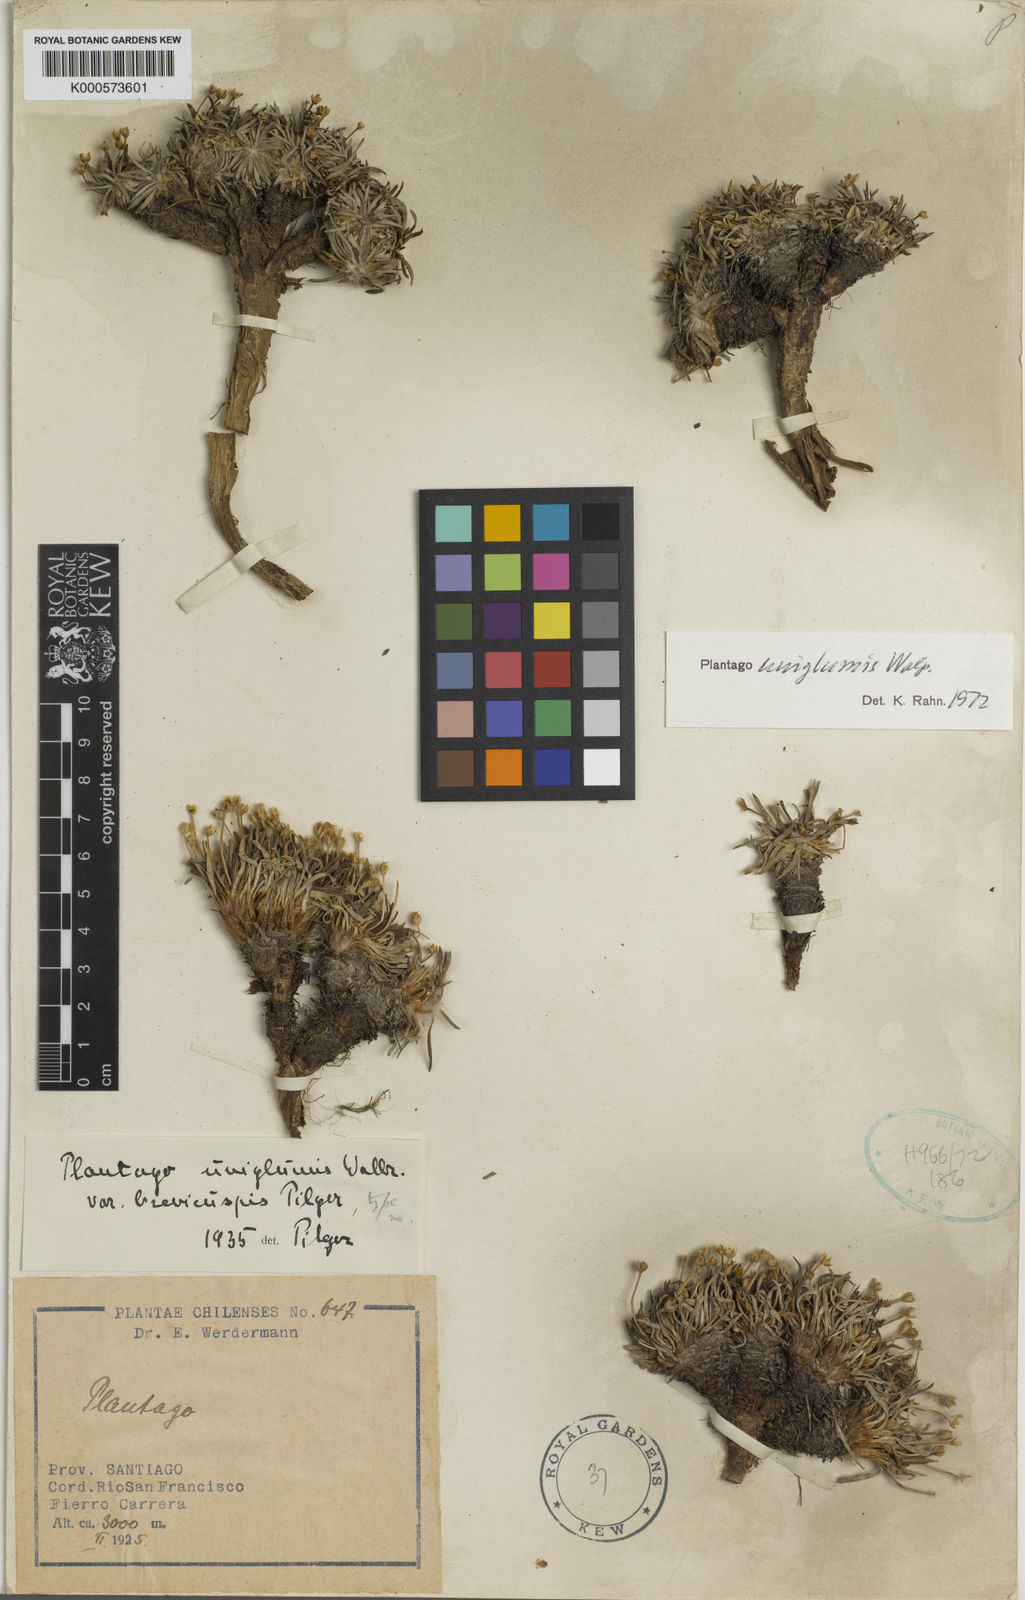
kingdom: Plantae
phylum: Tracheophyta
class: Magnoliopsida
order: Lamiales
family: Plantaginaceae
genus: Plantago
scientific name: Plantago uniglumis
